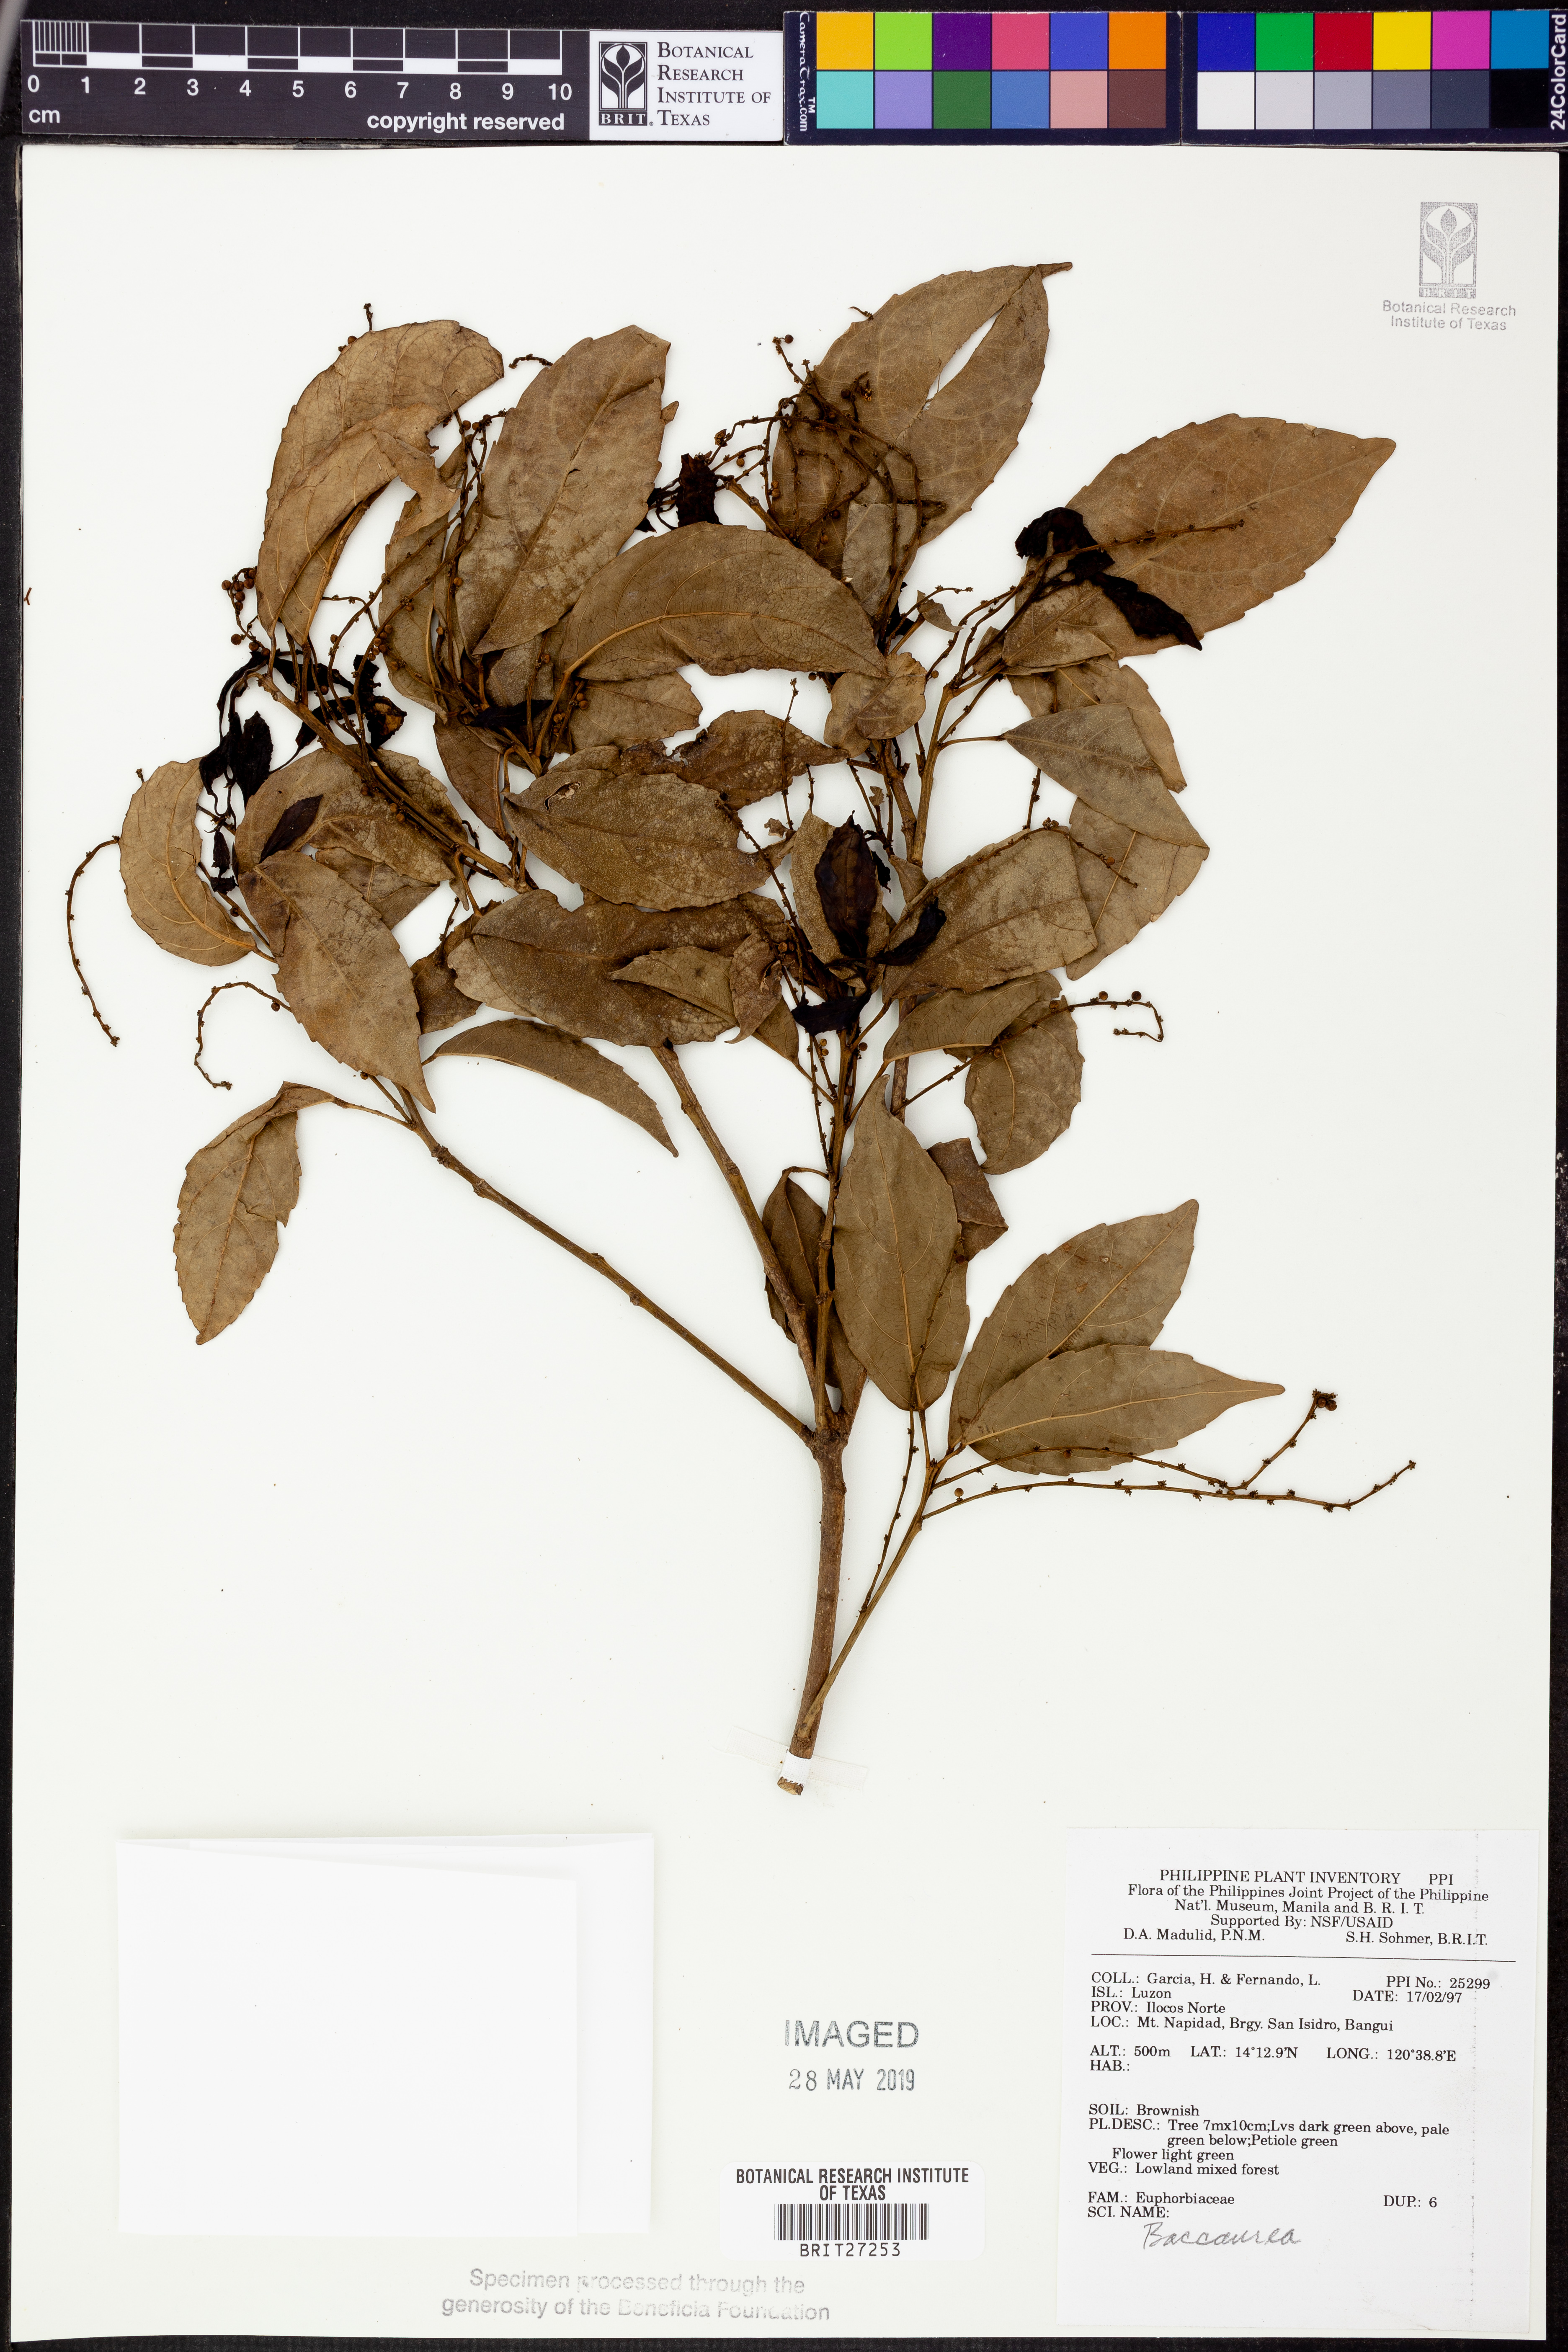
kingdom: Plantae
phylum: Tracheophyta
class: Magnoliopsida
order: Malpighiales
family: Phyllanthaceae
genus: Baccaurea
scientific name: Baccaurea
